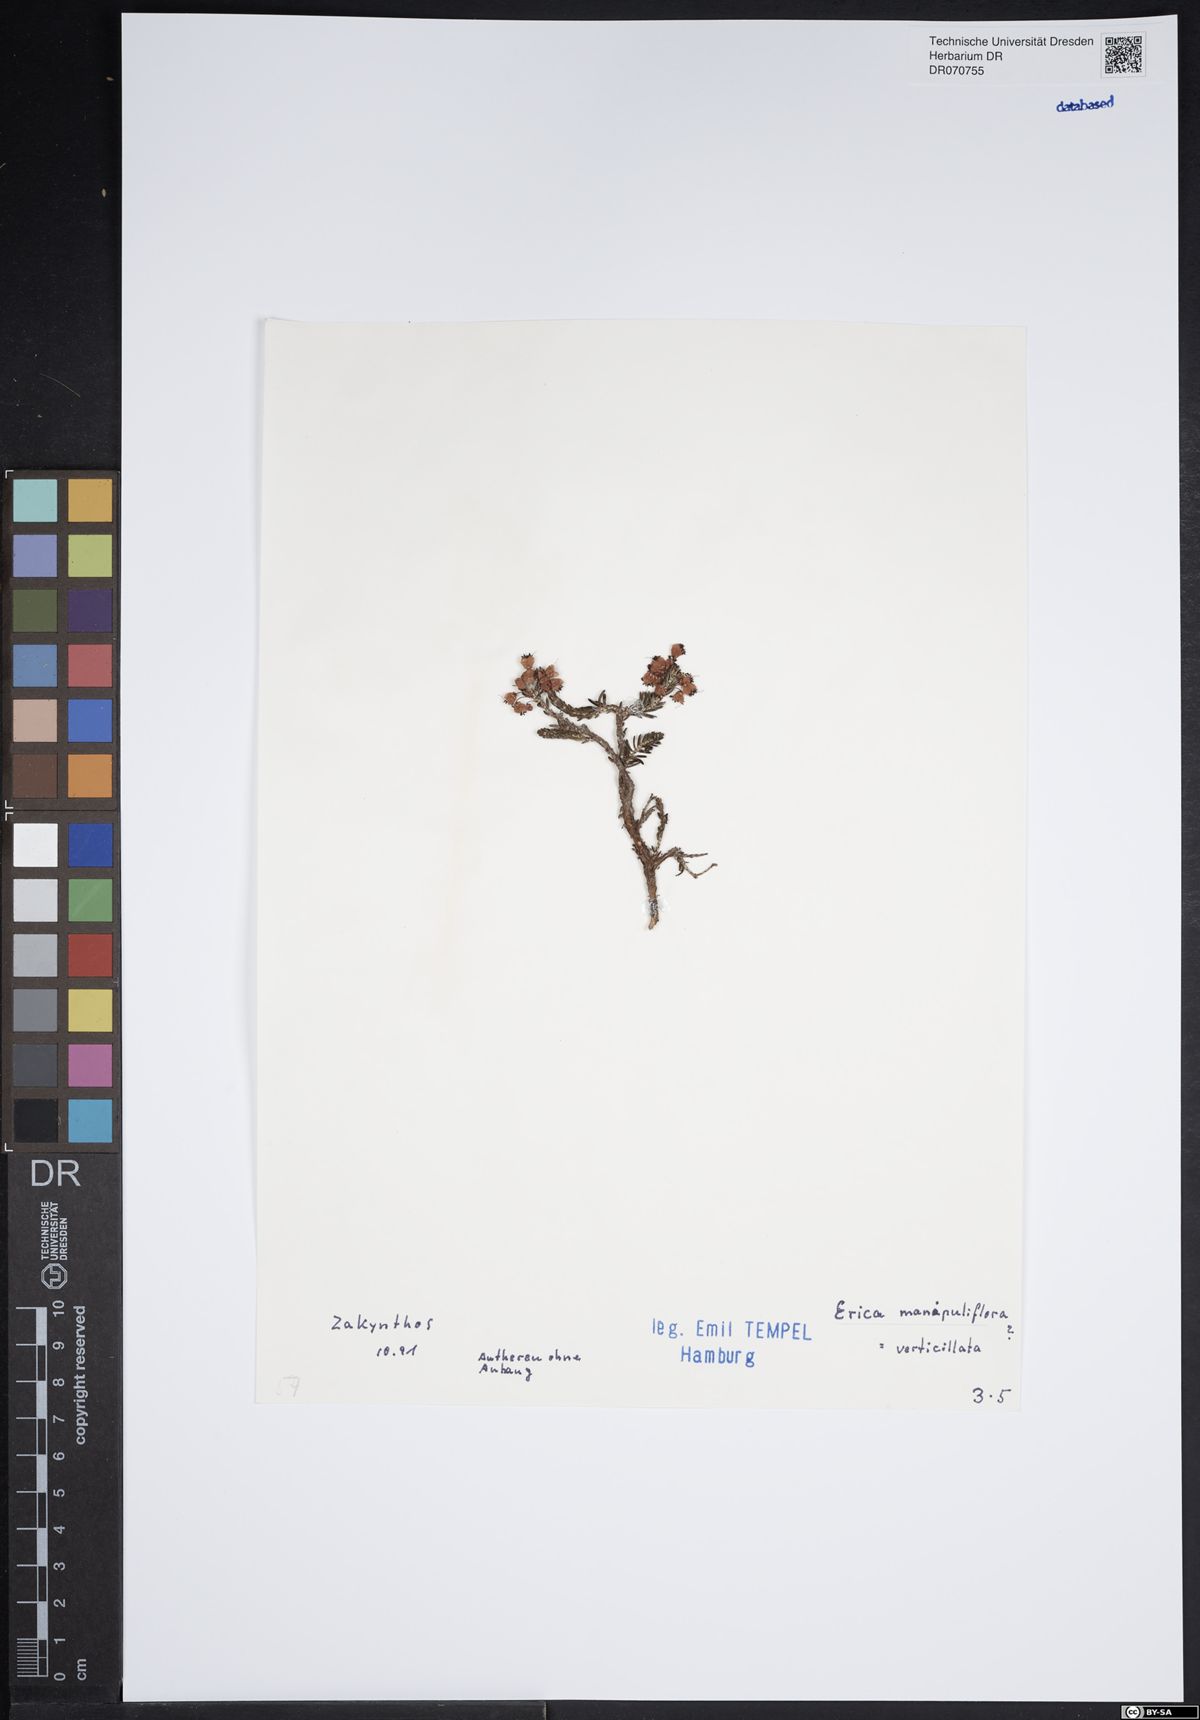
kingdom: Plantae
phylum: Tracheophyta
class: Magnoliopsida
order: Ericales
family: Ericaceae
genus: Erica
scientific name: Erica manipuliflora
